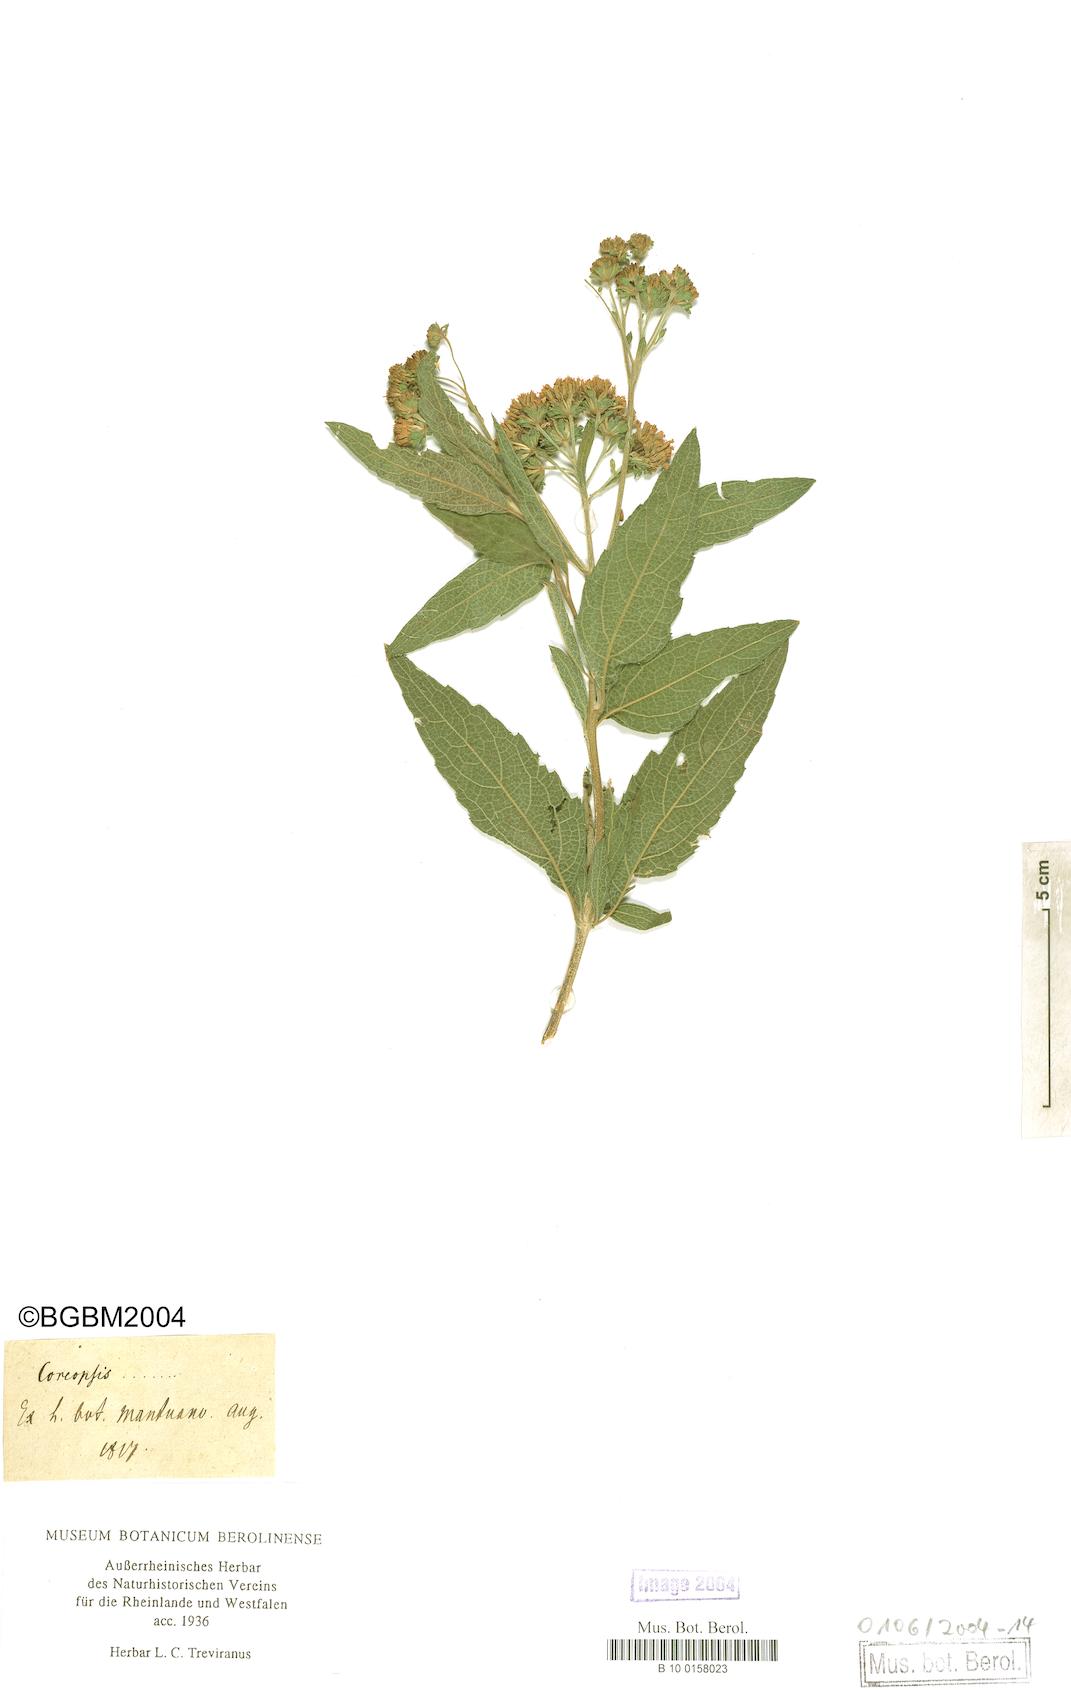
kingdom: Plantae
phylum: Tracheophyta
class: Magnoliopsida
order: Asterales
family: Asteraceae
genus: Coreopsis
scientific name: Coreopsis
